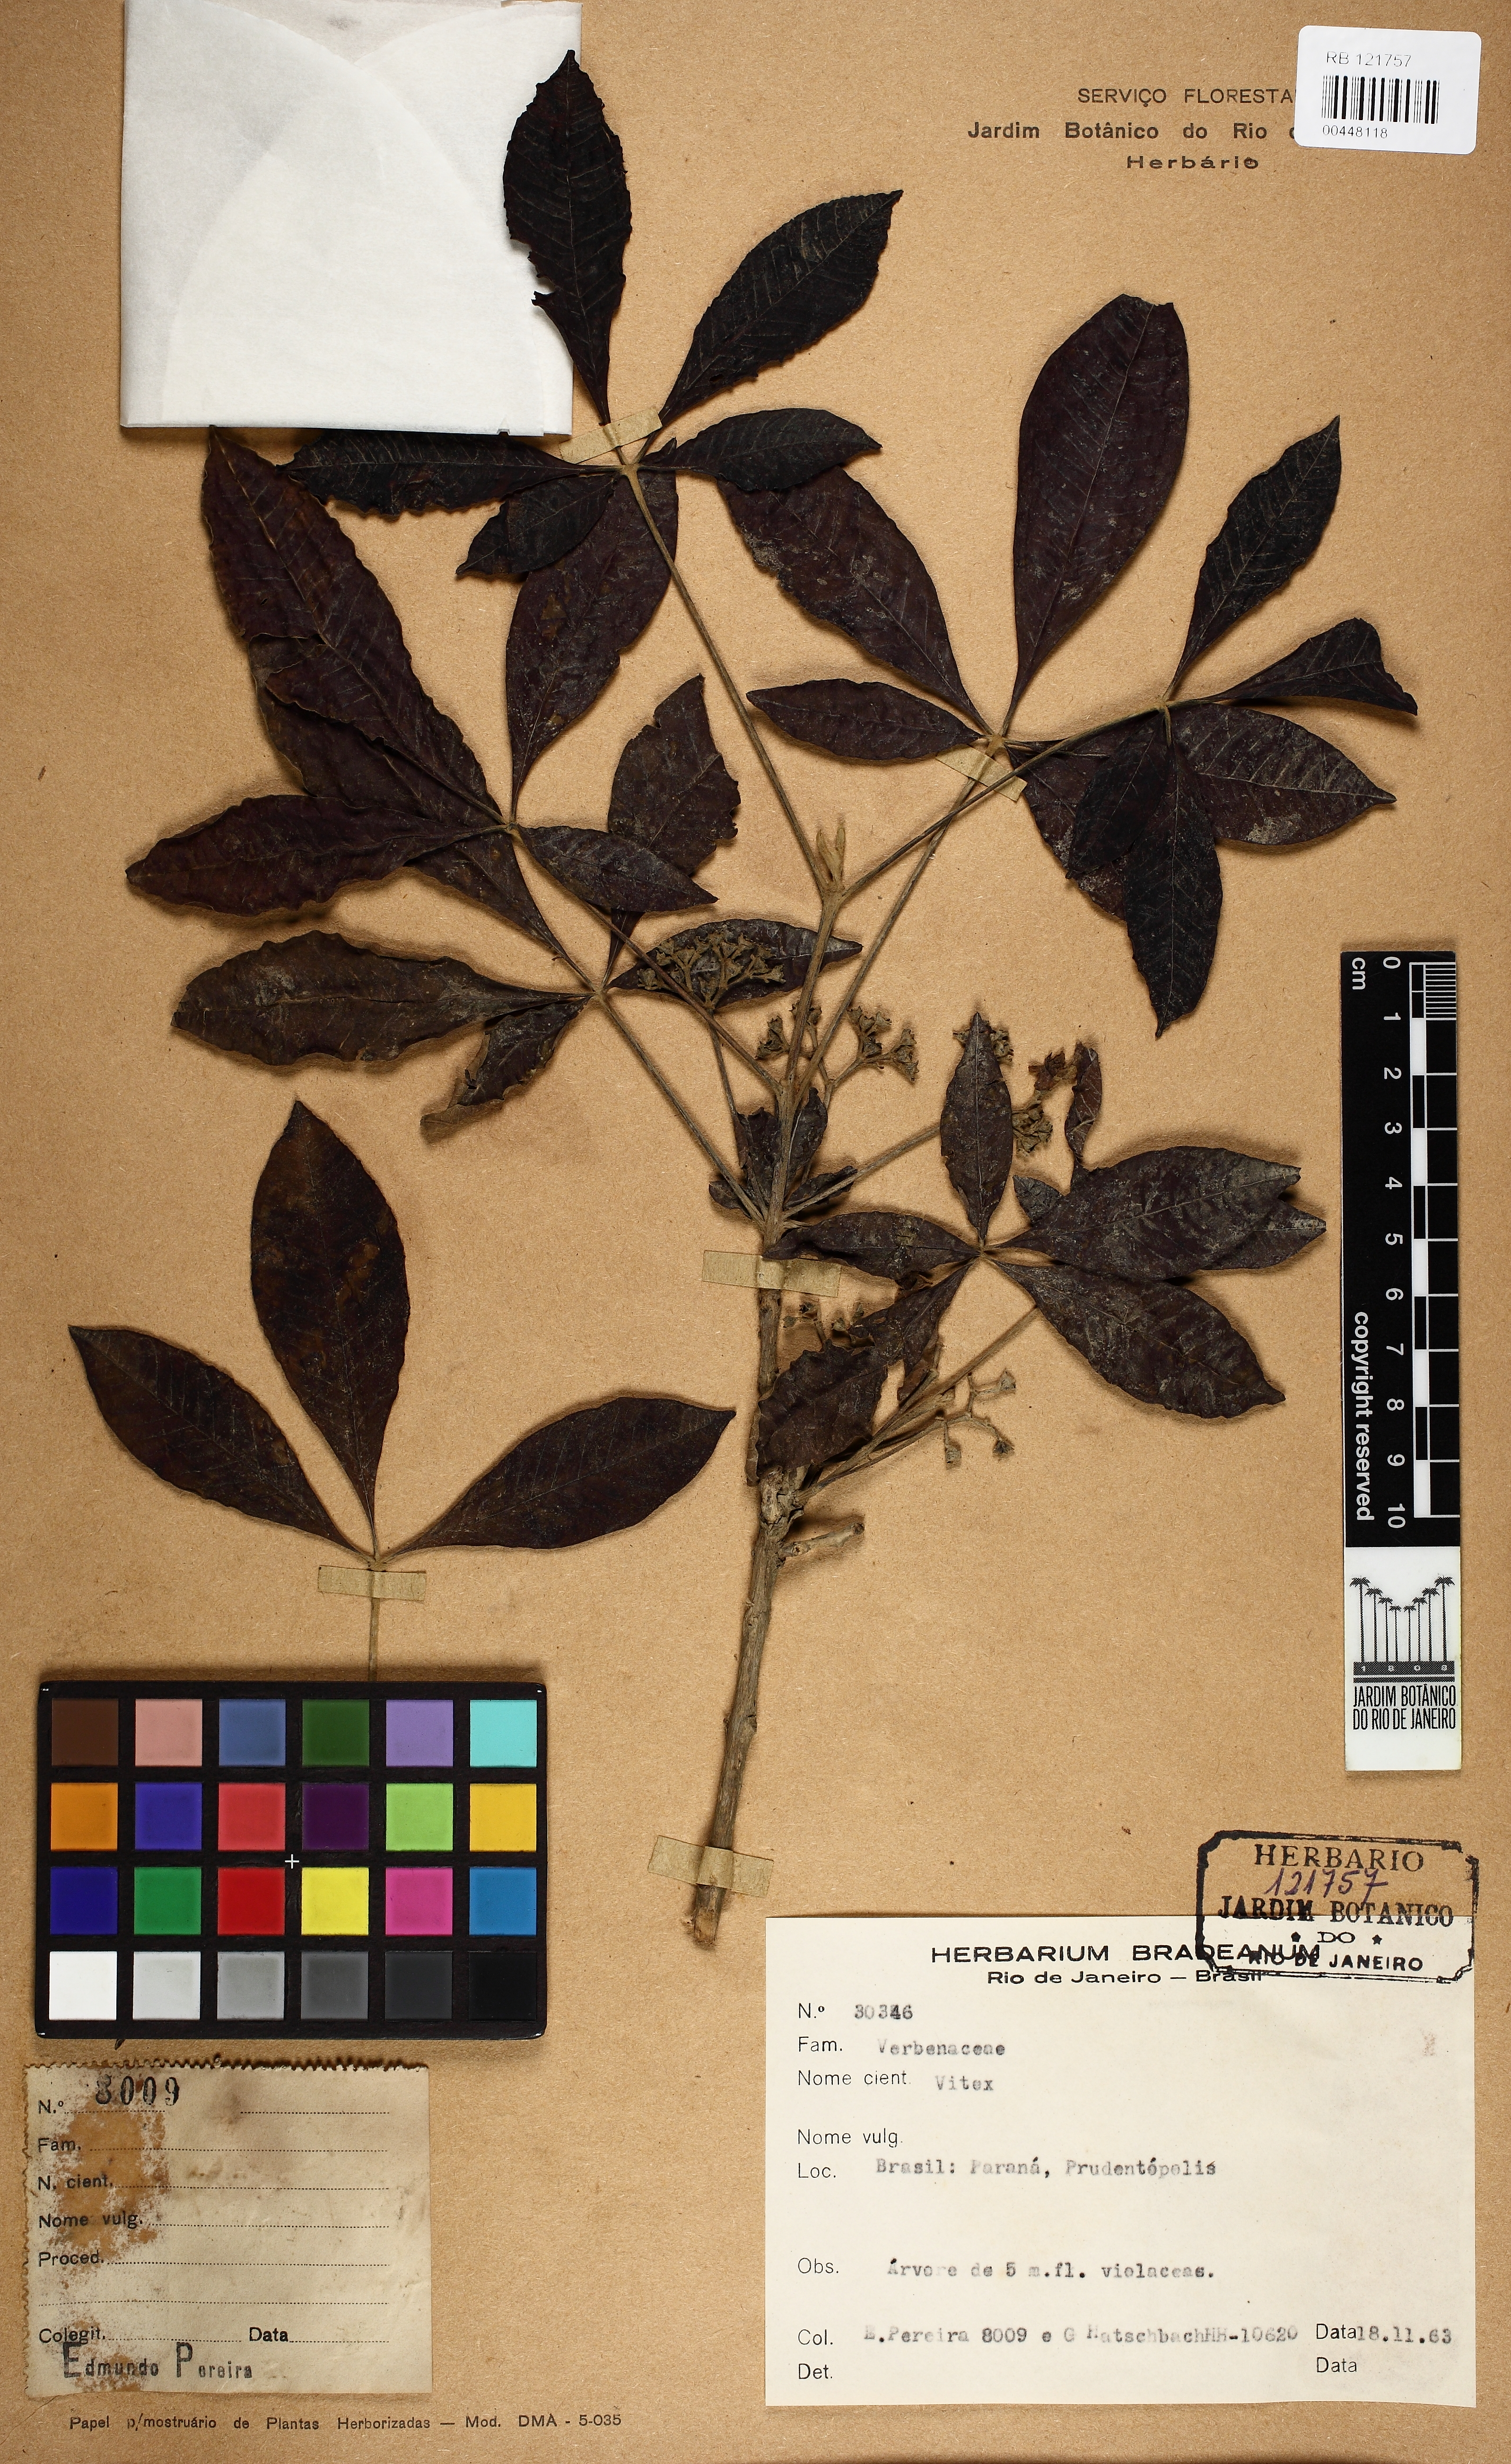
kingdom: Plantae
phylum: Tracheophyta
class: Magnoliopsida
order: Lamiales
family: Lamiaceae
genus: Vitex
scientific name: Vitex
